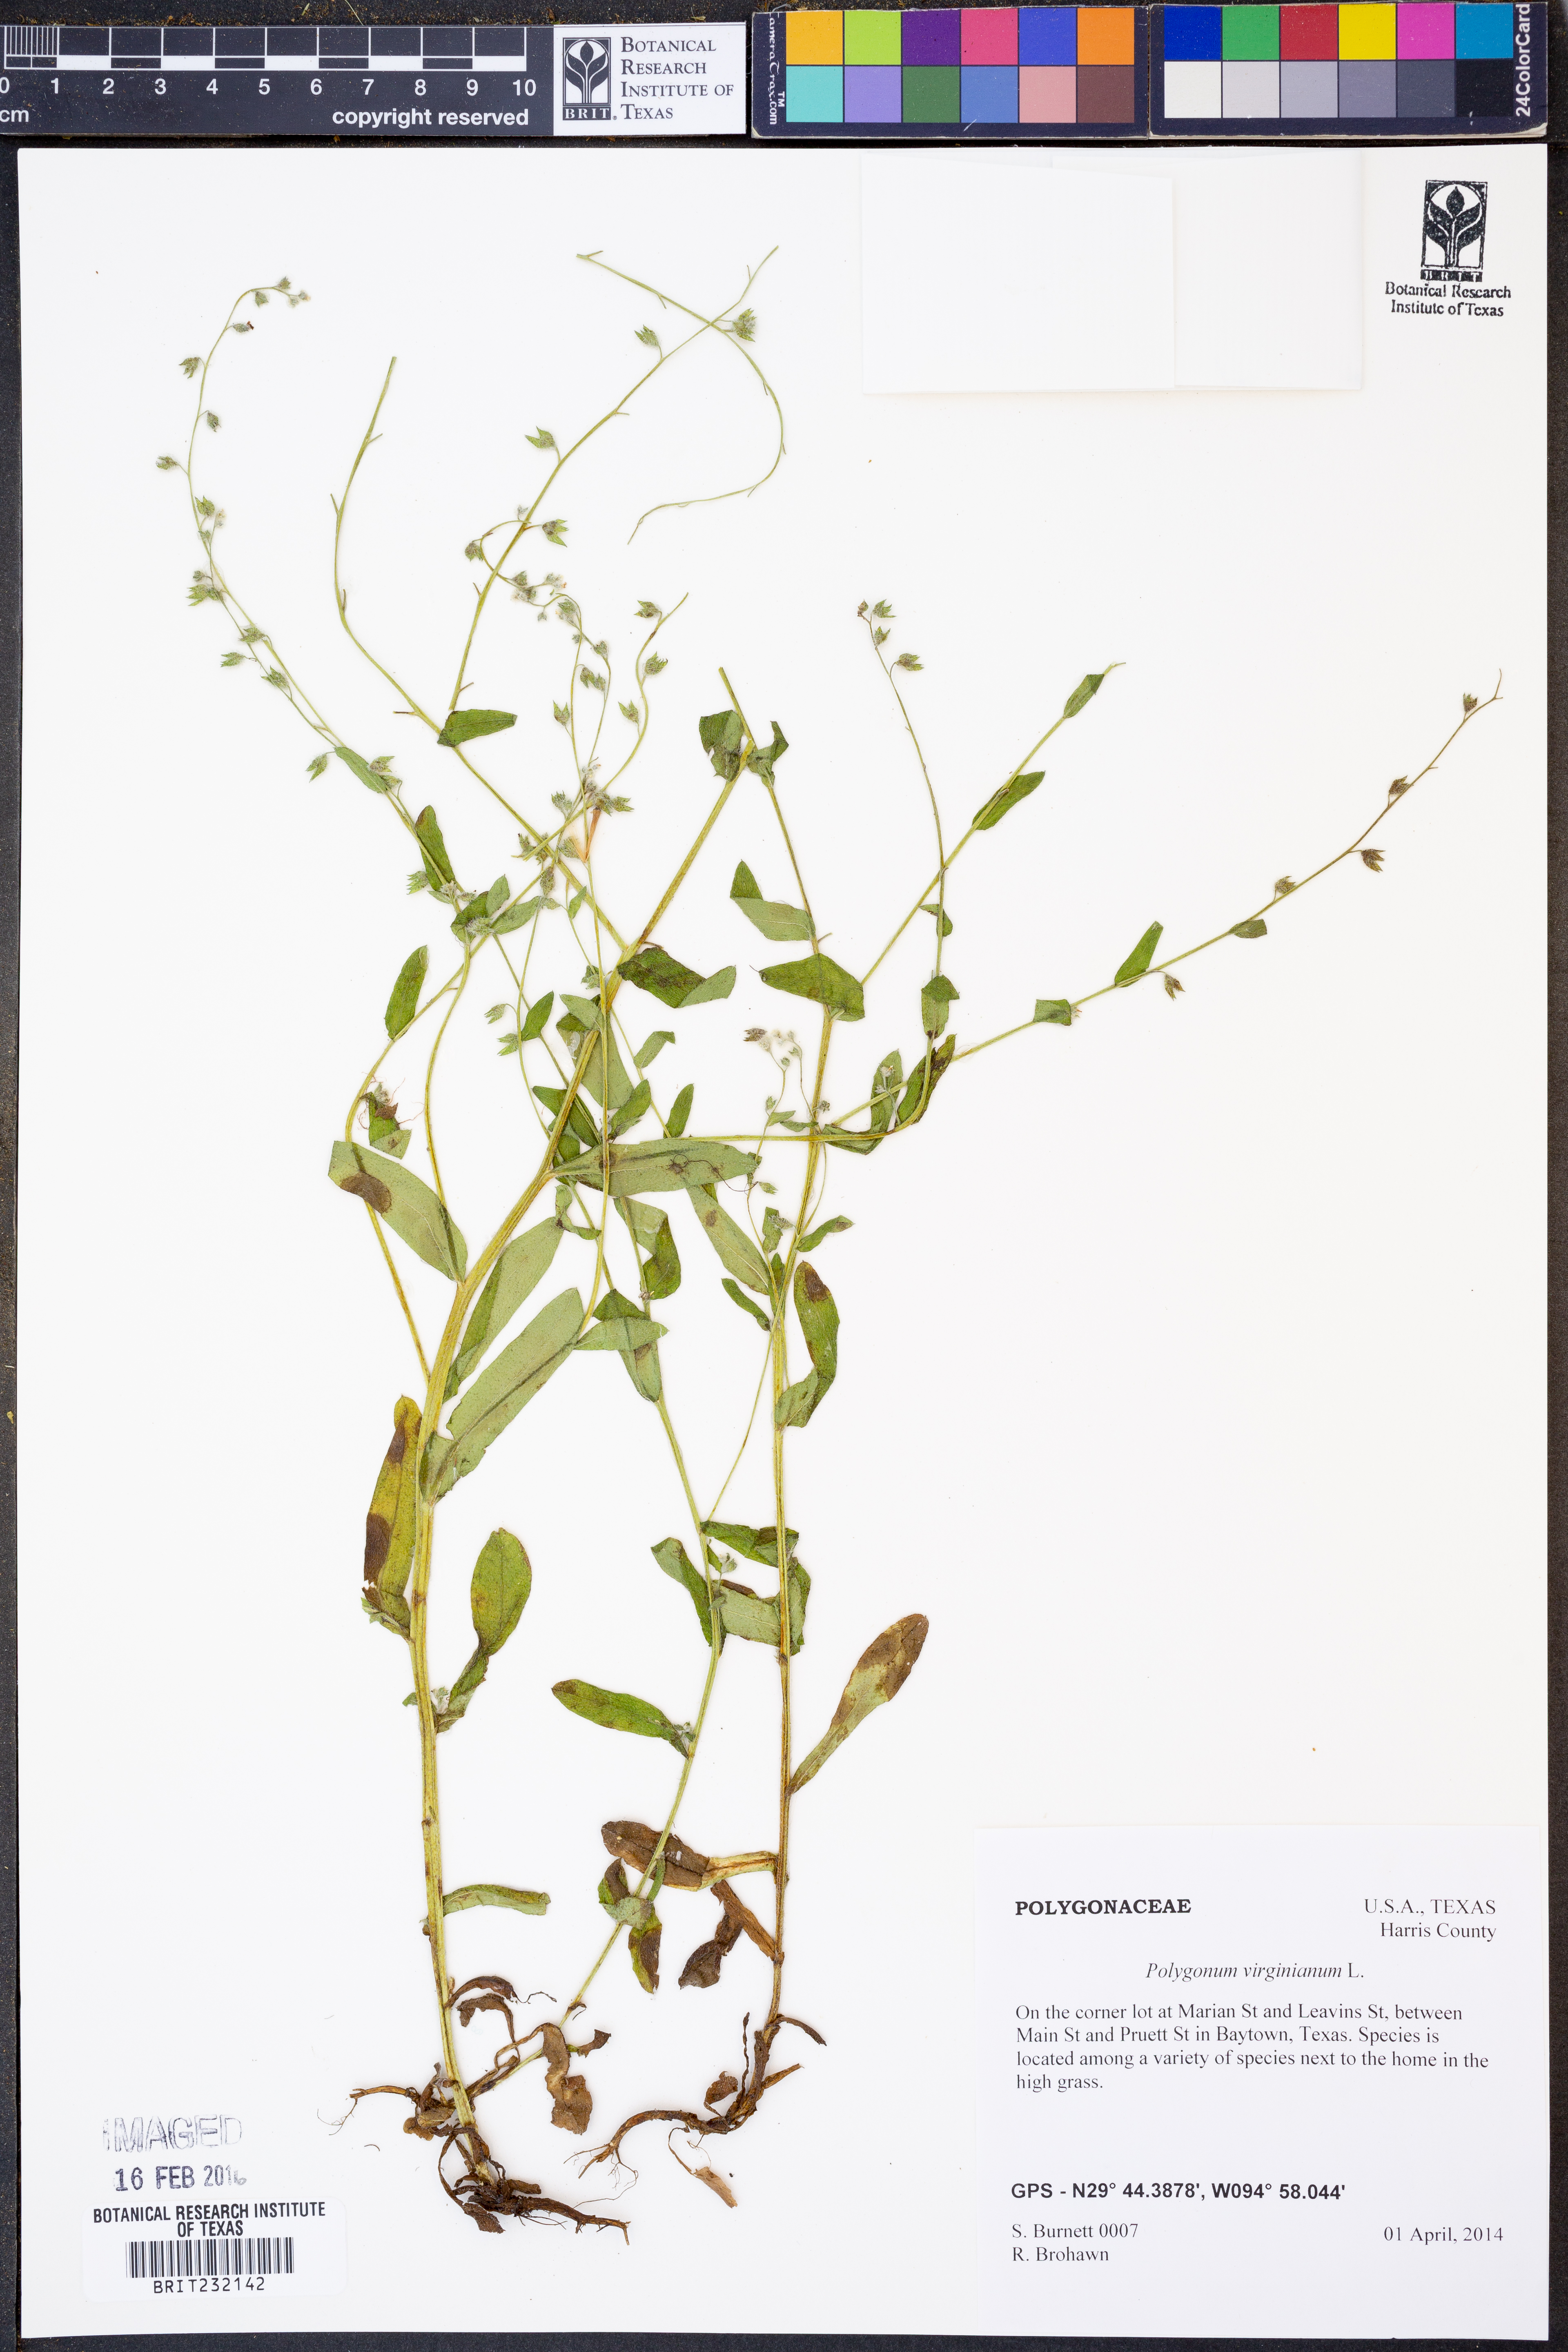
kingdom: Plantae
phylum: Tracheophyta
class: Magnoliopsida
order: Caryophyllales
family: Polygonaceae
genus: Persicaria
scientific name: Persicaria virginiana
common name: Jumpseed
